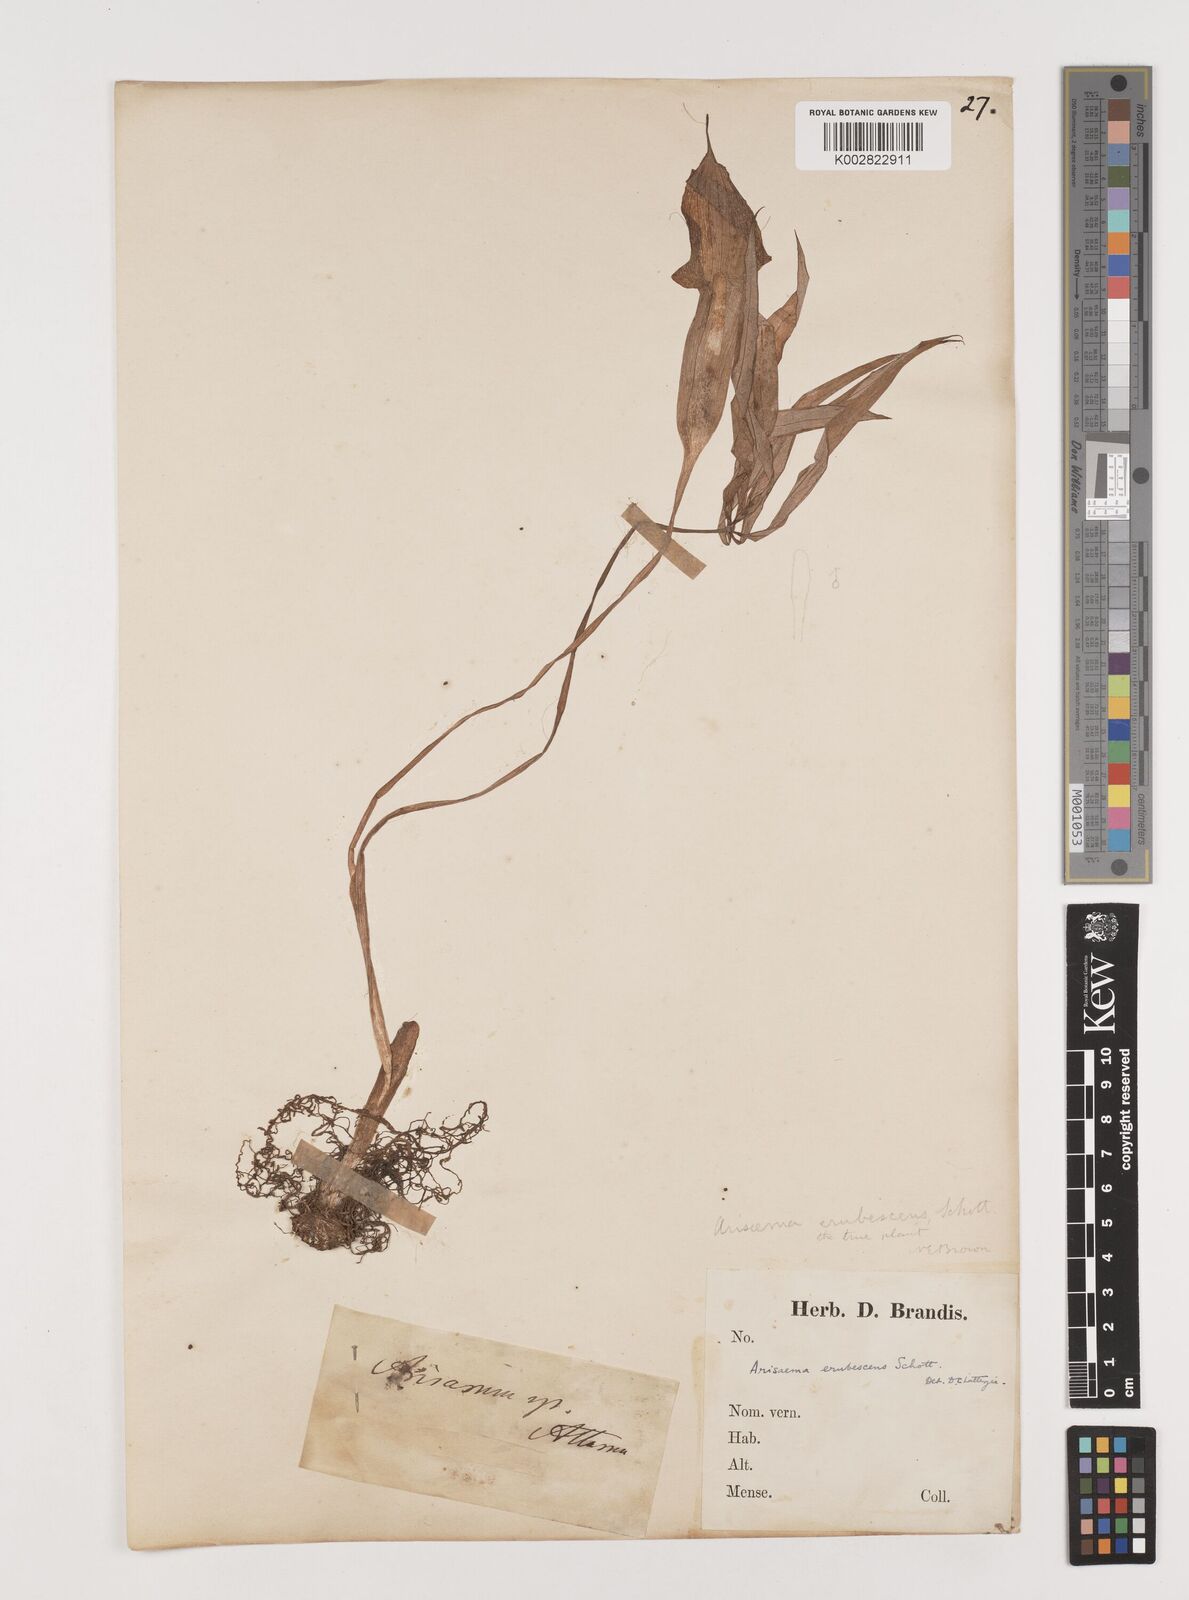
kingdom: Plantae
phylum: Tracheophyta
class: Liliopsida
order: Alismatales
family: Araceae
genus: Arisaema
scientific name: Arisaema erubescens
